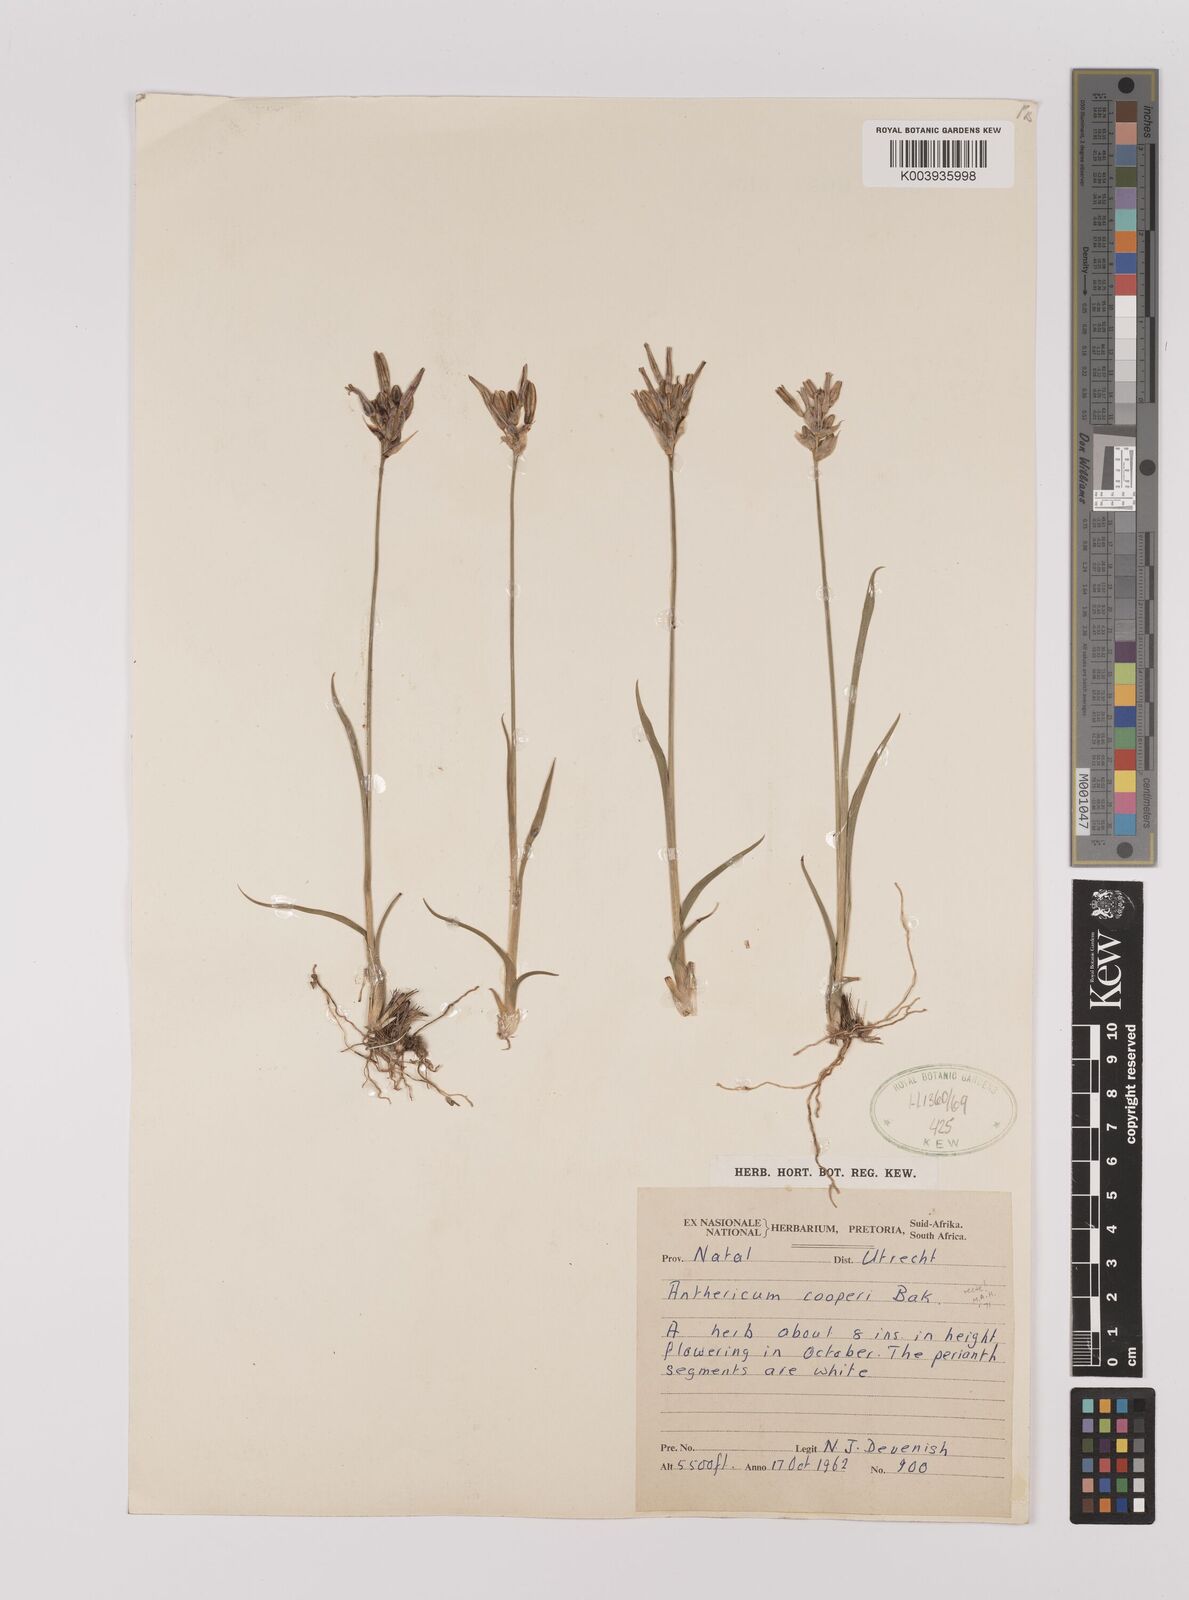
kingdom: Plantae
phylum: Tracheophyta
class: Liliopsida
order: Asparagales
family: Asparagaceae
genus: Chlorophytum
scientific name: Chlorophytum cooperi
